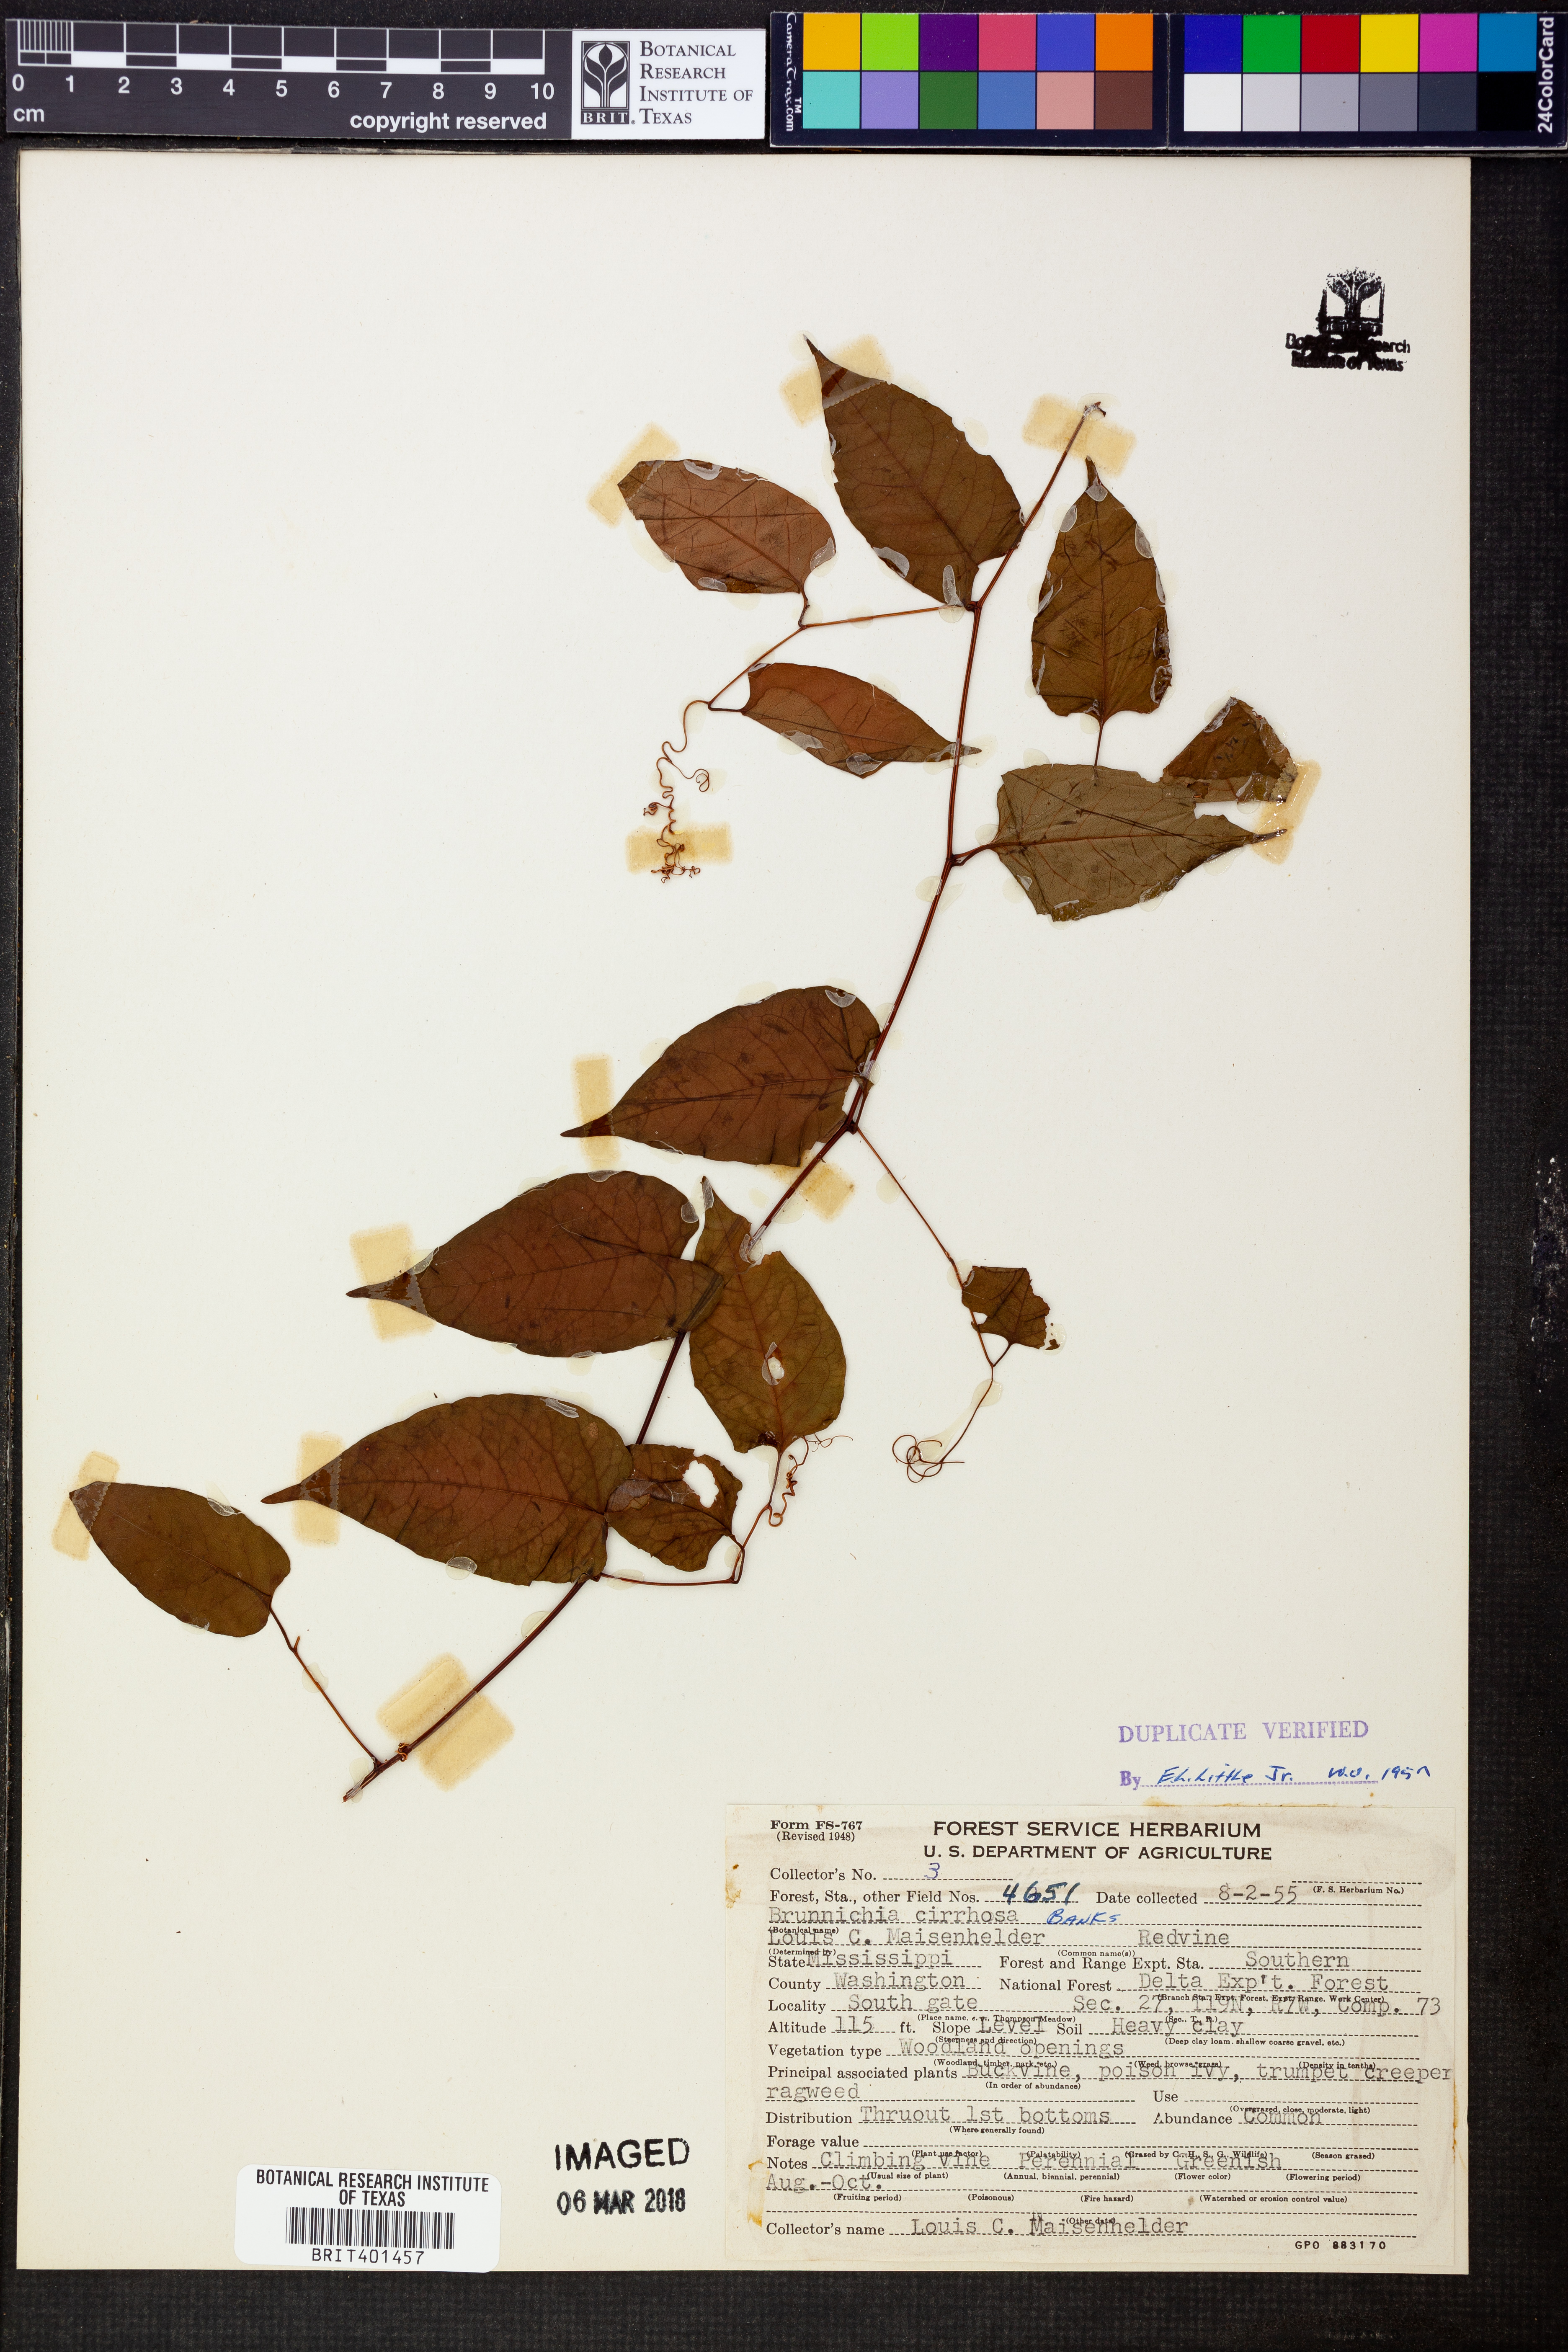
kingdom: Plantae
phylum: Tracheophyta
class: Magnoliopsida
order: Caryophyllales
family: Polygonaceae
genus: Brunnichia
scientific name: Brunnichia ovata
